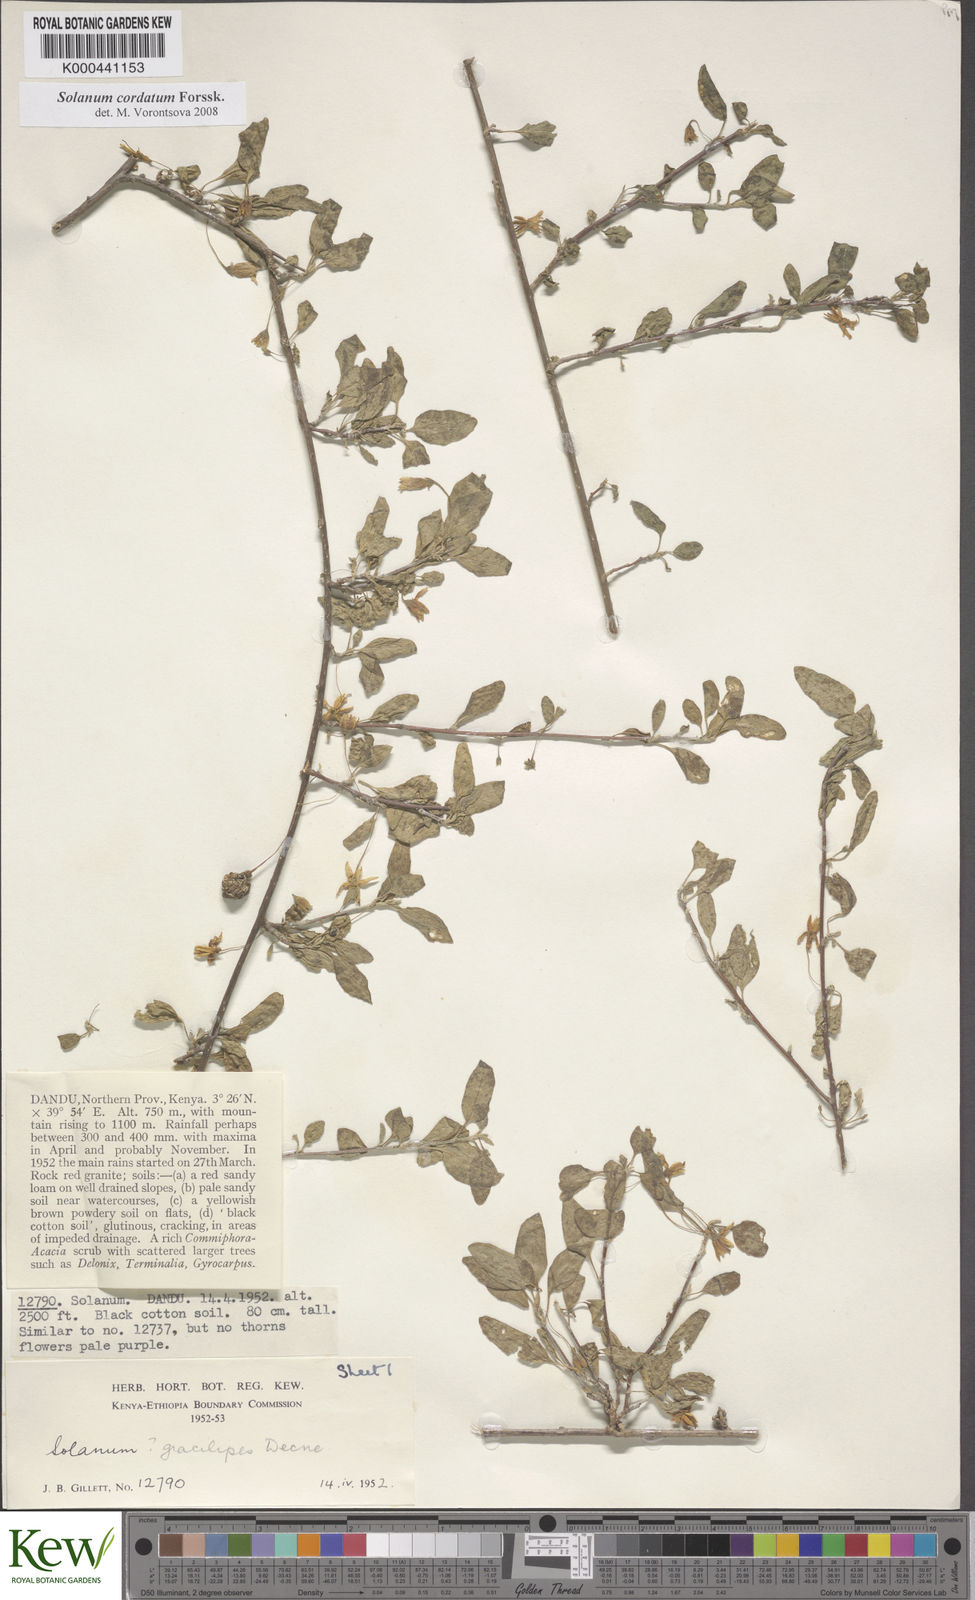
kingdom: Plantae
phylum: Tracheophyta
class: Magnoliopsida
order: Solanales
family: Solanaceae
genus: Solanum
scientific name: Solanum cordatum
